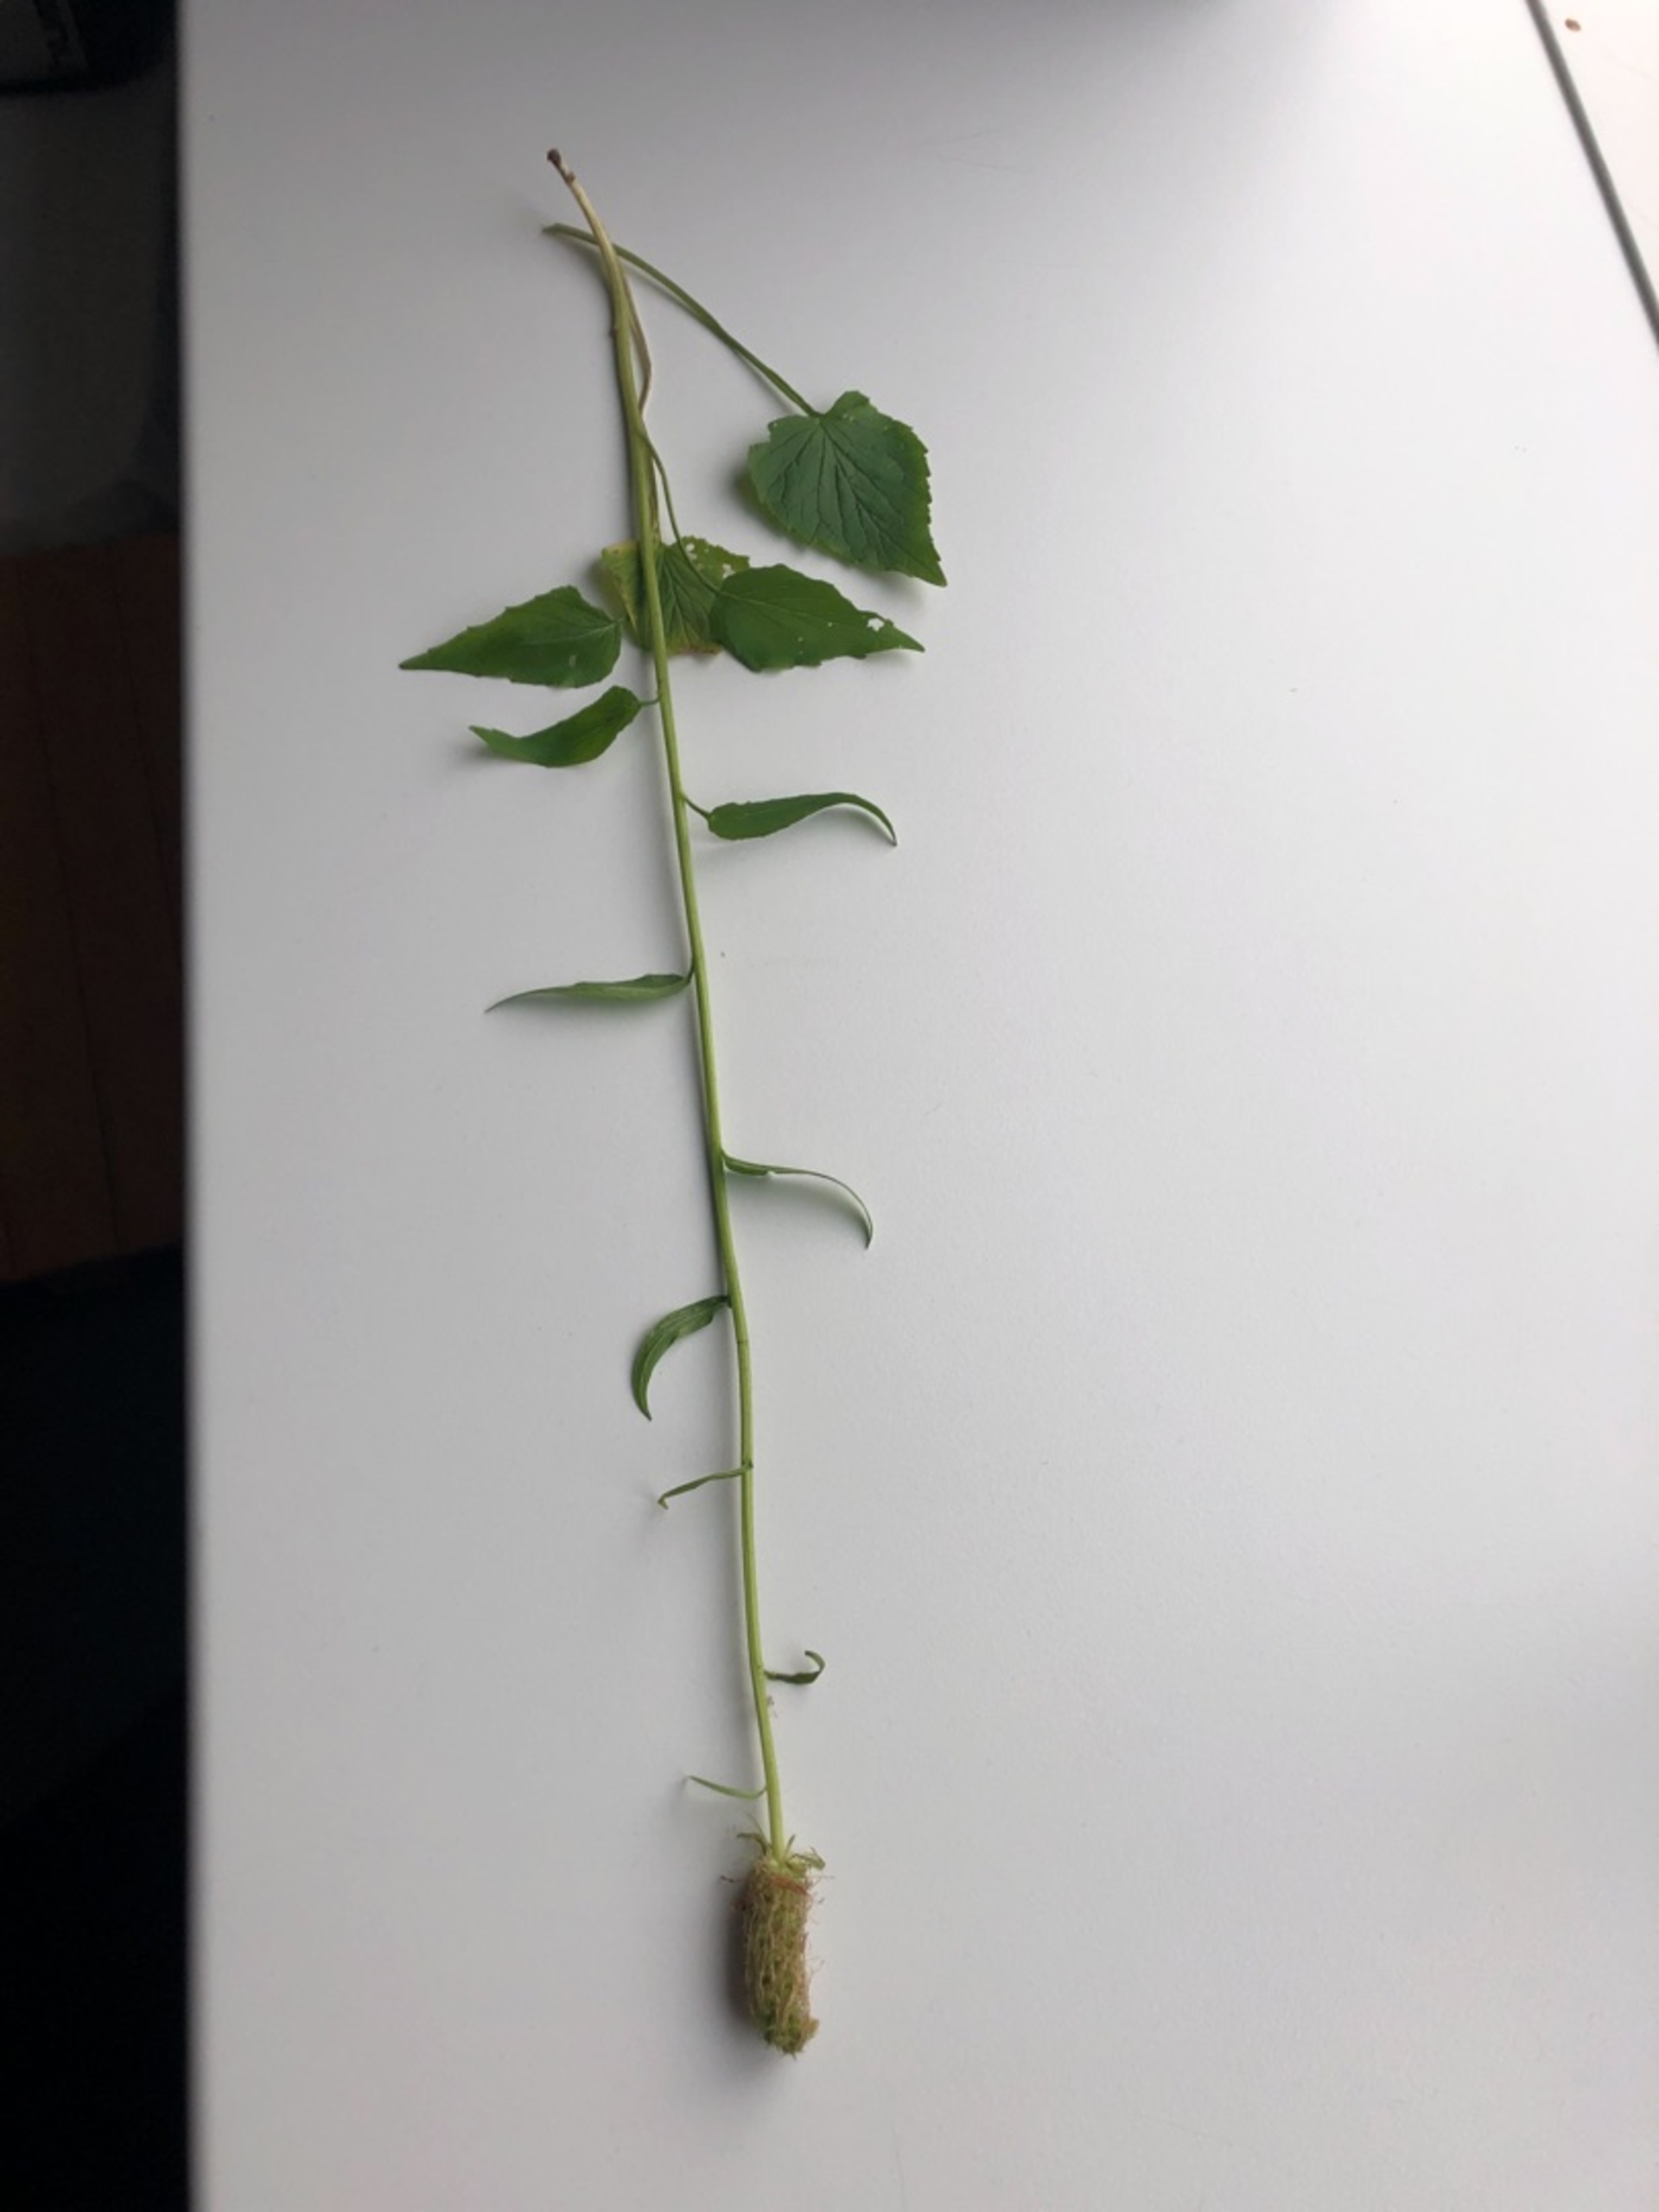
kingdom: Plantae
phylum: Tracheophyta
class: Magnoliopsida
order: Asterales
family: Campanulaceae
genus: Phyteuma
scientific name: Phyteuma spicatum
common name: Aks-rapunsel
